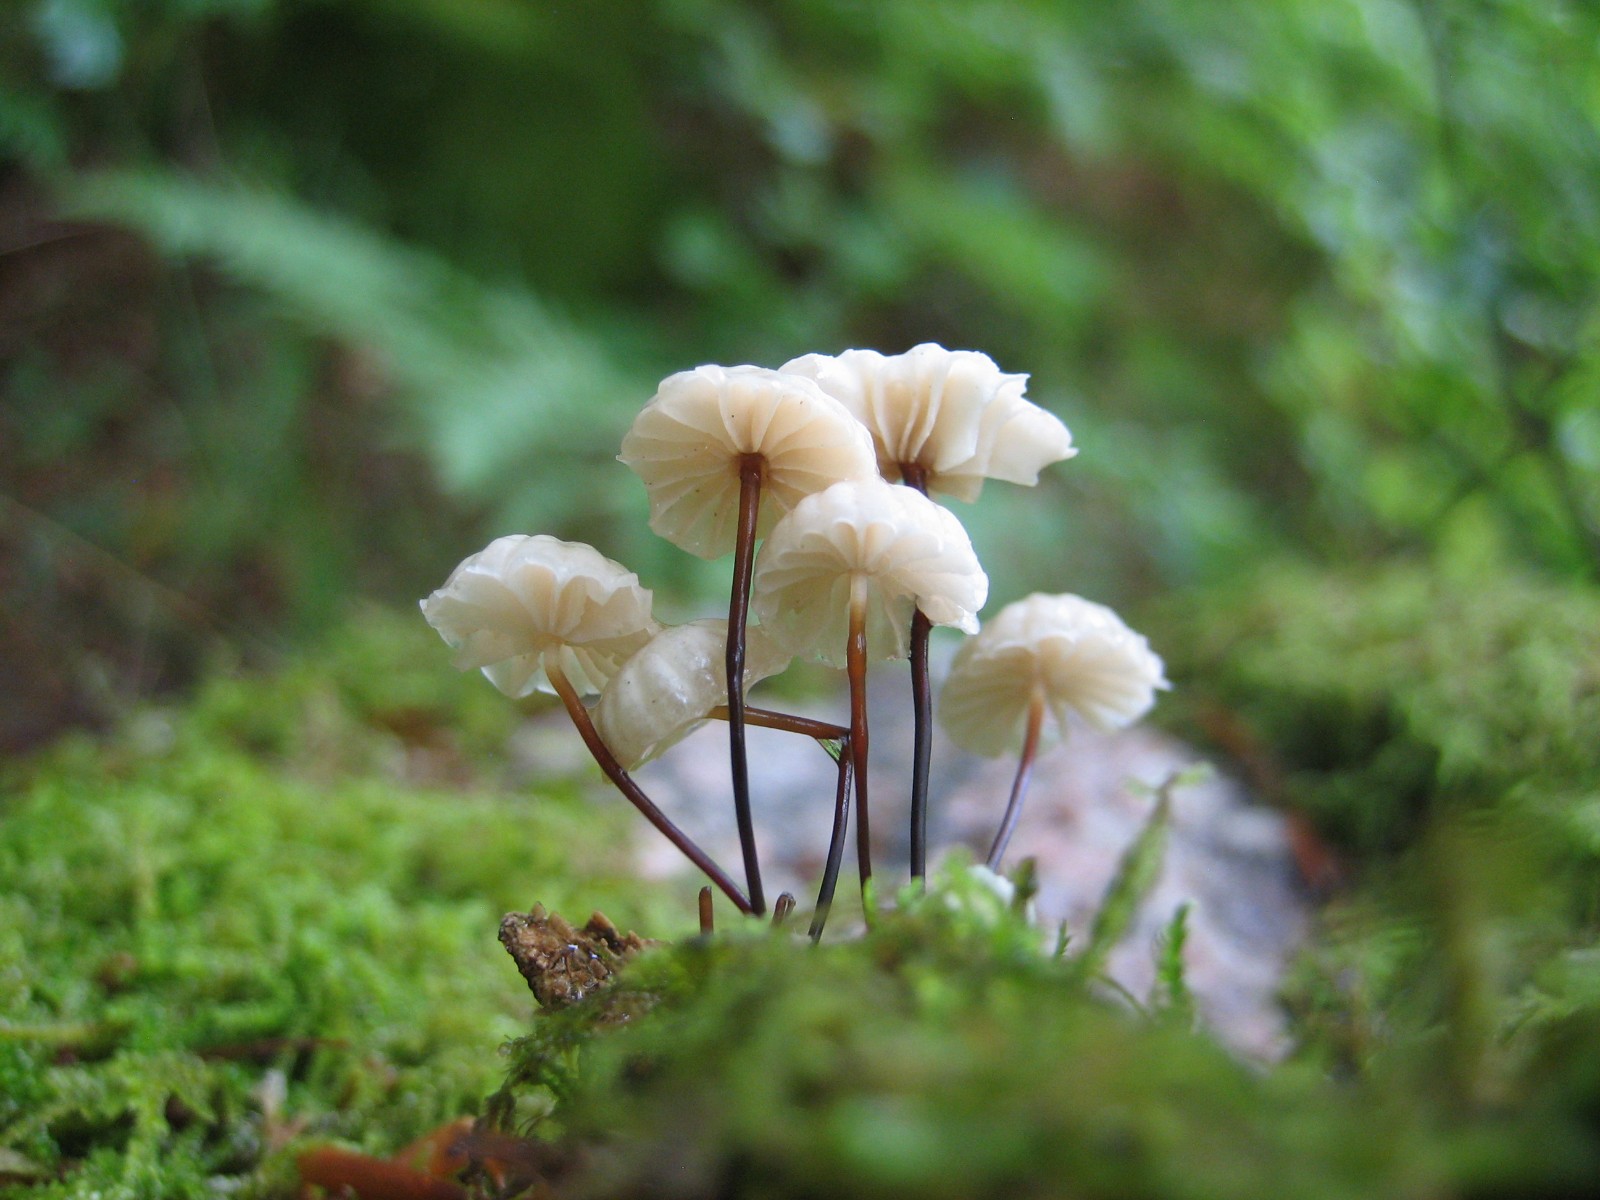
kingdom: Fungi
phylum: Basidiomycota
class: Agaricomycetes
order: Agaricales
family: Marasmiaceae
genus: Marasmius
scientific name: Marasmius rotula
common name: hjul-bruskhat
